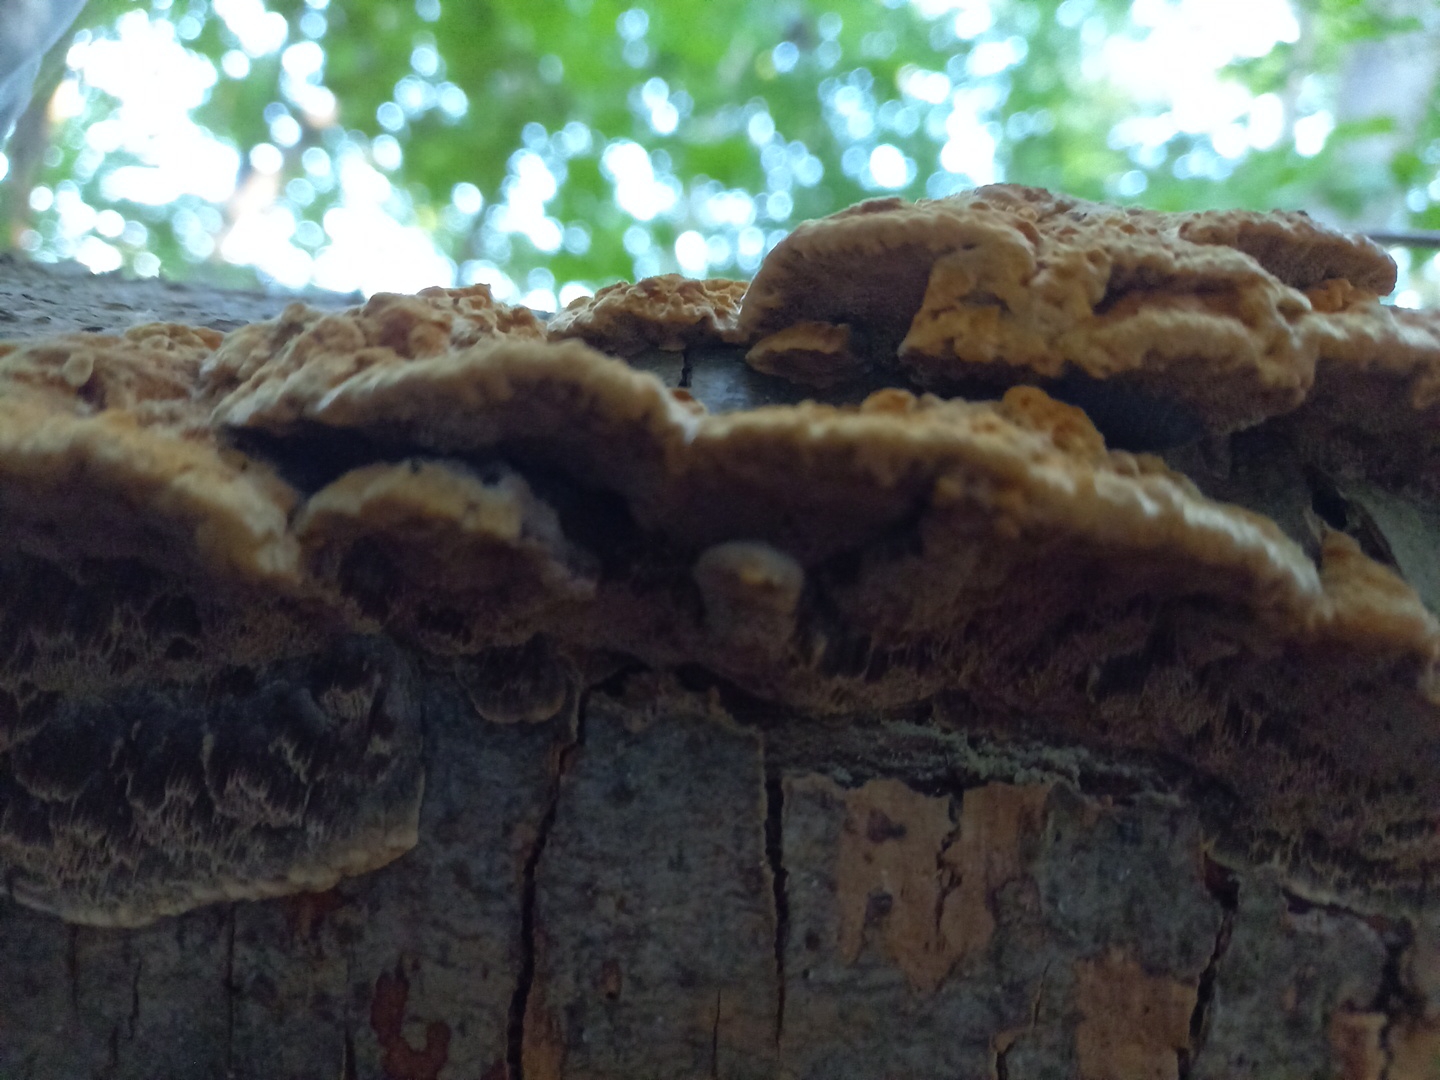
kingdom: Fungi
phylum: Basidiomycota
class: Agaricomycetes
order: Hymenochaetales
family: Hymenochaetaceae
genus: Mensularia
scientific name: Mensularia nodulosa
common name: bøge-spejlporesvamp
